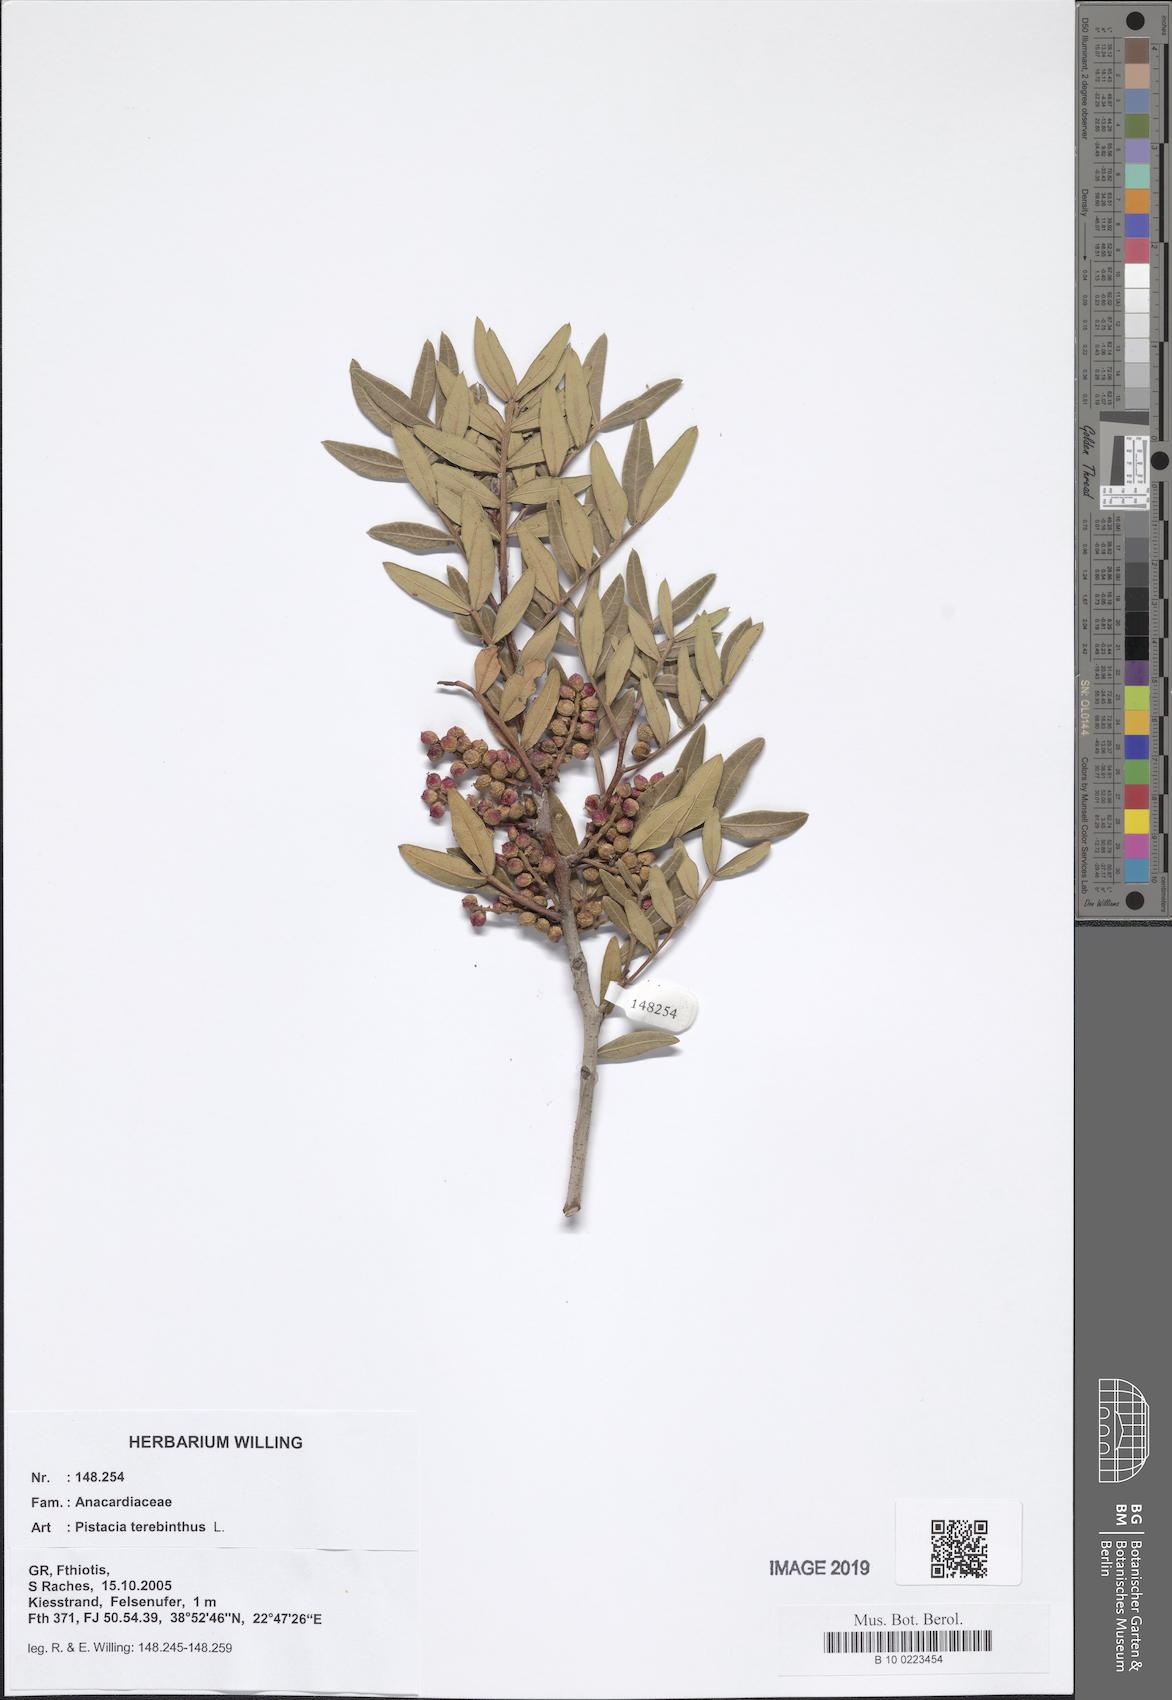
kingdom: Plantae
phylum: Tracheophyta
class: Magnoliopsida
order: Sapindales
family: Anacardiaceae
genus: Pistacia
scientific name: Pistacia terebinthus
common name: Terebinth
